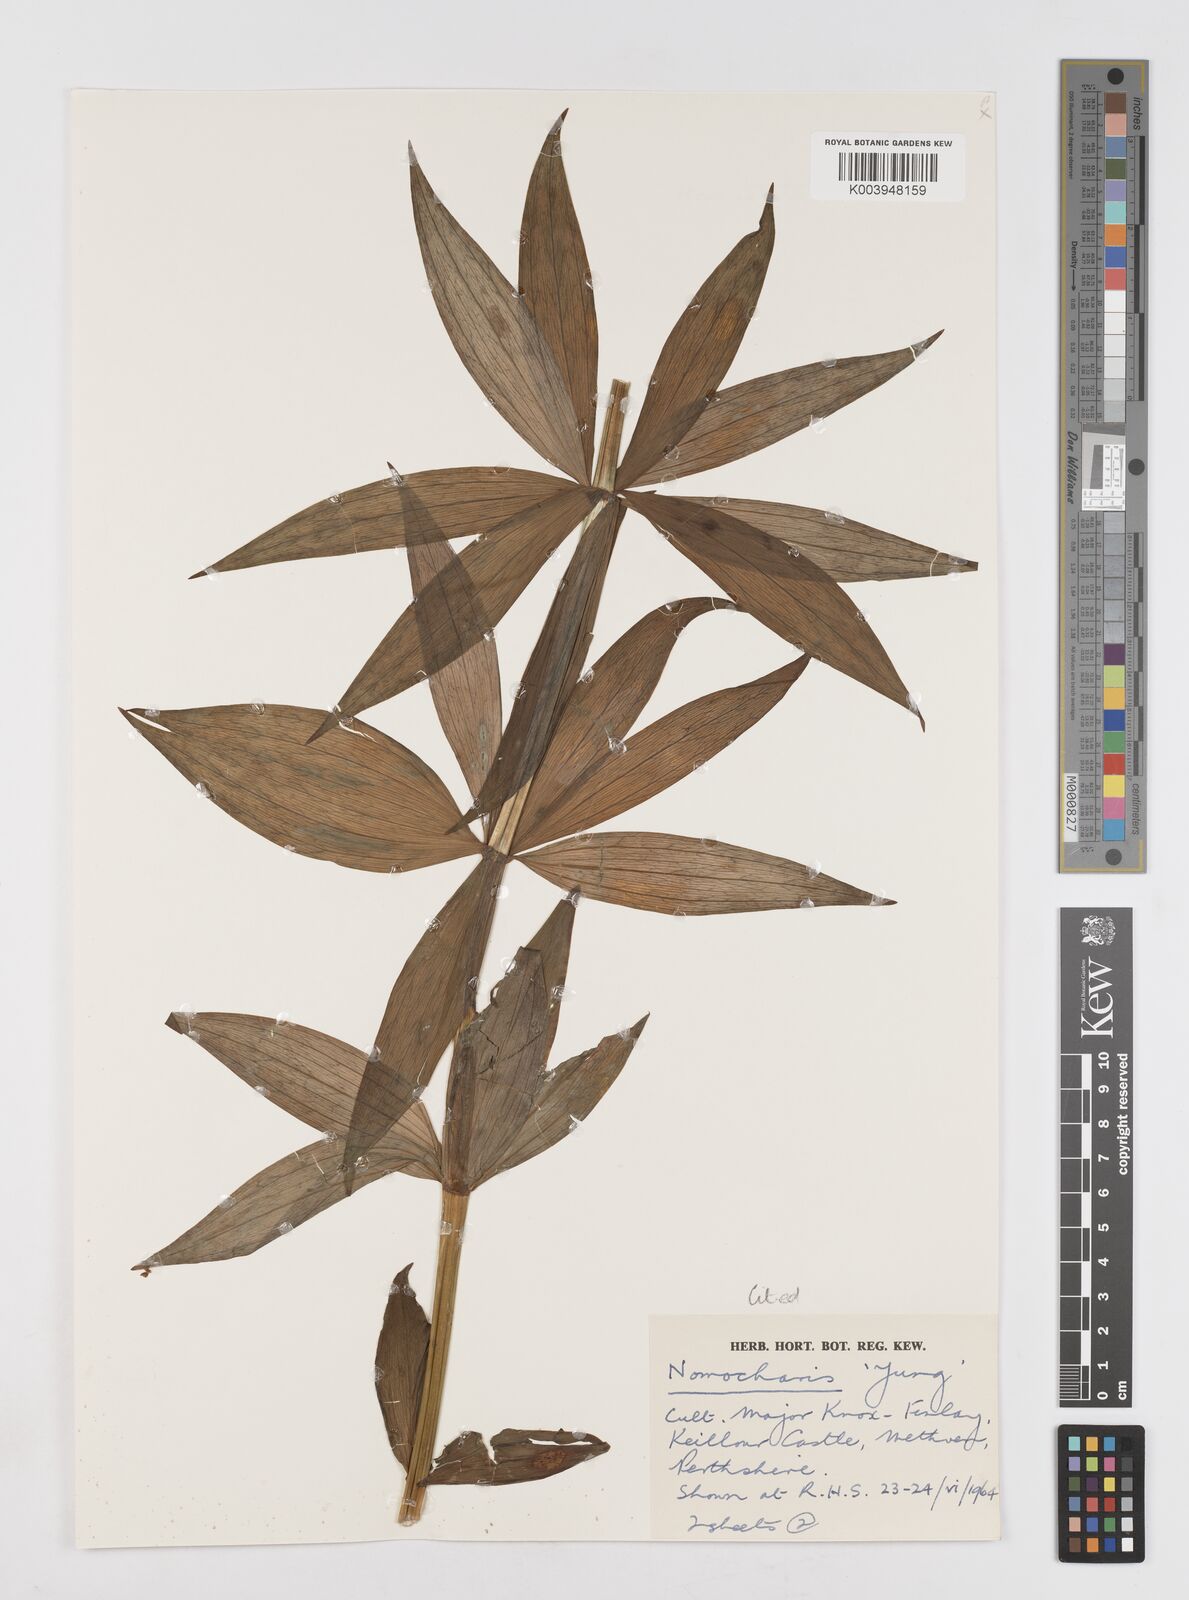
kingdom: Plantae
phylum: Tracheophyta
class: Liliopsida
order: Liliales
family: Liliaceae
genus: Lilium
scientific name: Lilium Nomocharis finlayorum
